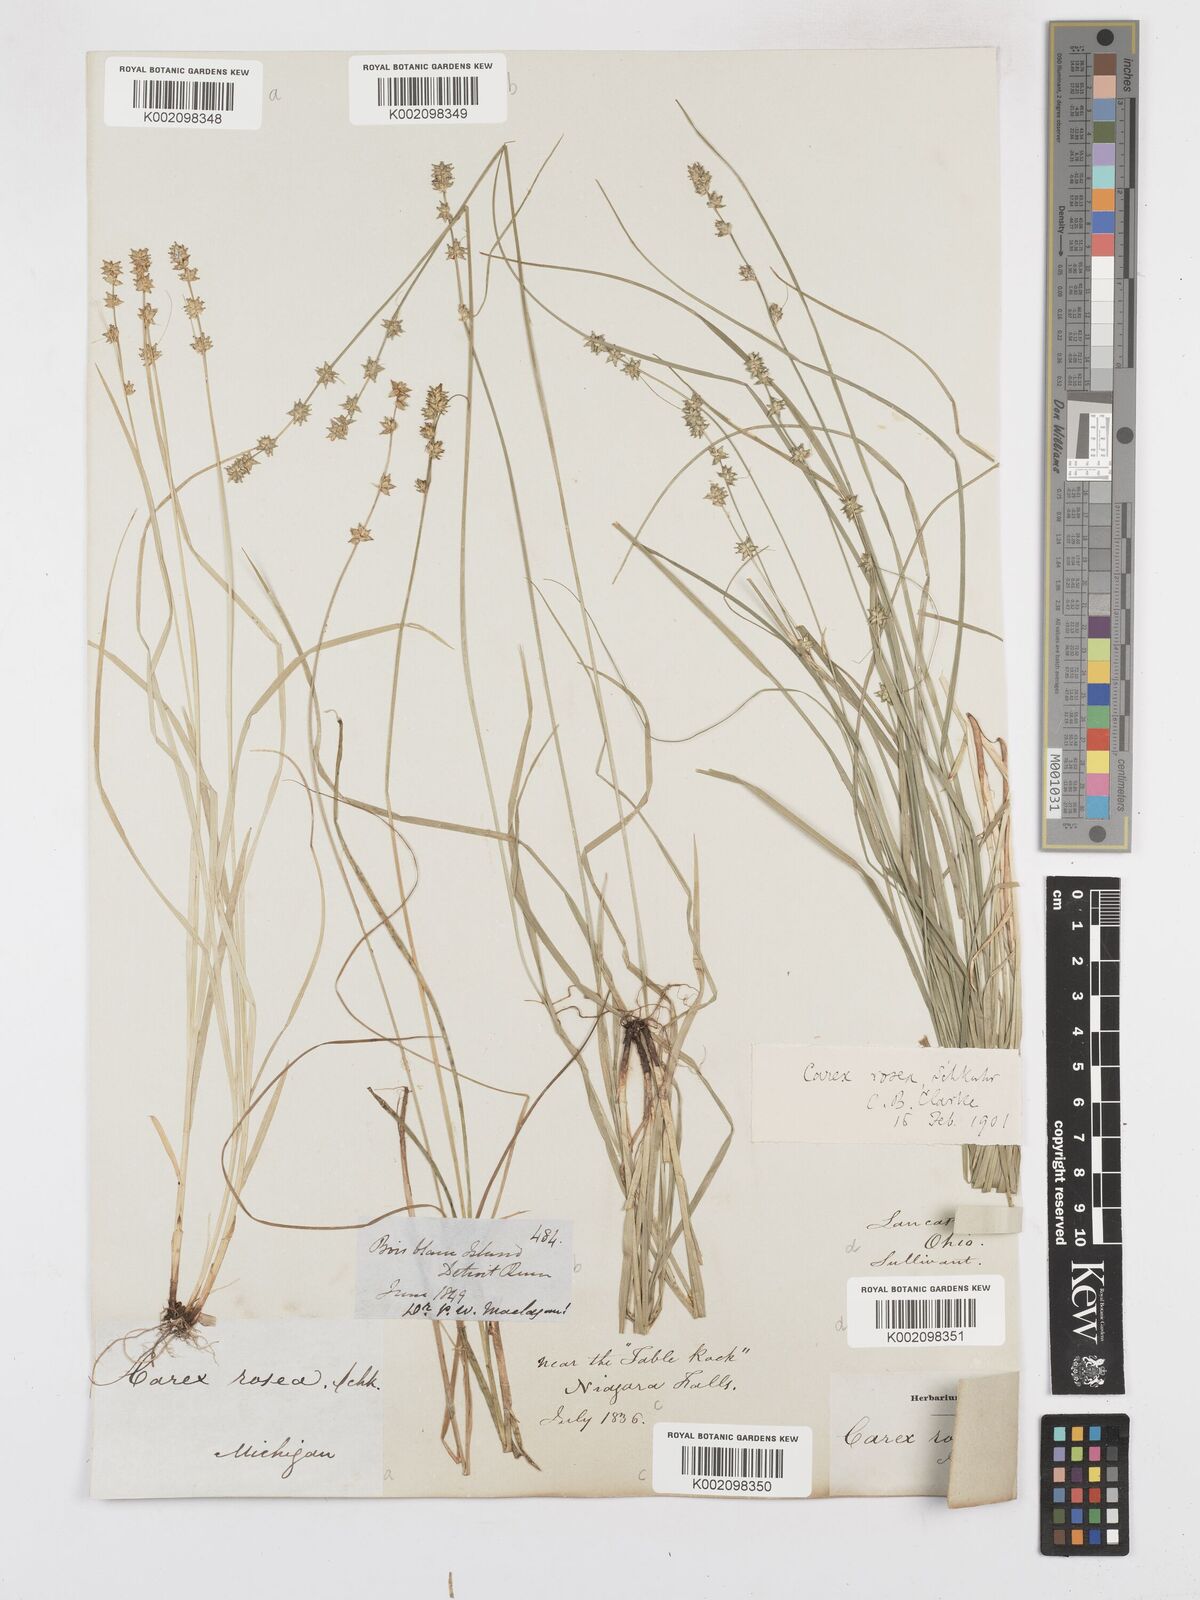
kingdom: Plantae
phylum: Tracheophyta
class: Liliopsida
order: Poales
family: Cyperaceae
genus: Carex
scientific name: Carex rosea
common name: Curly-styled wood sedge
